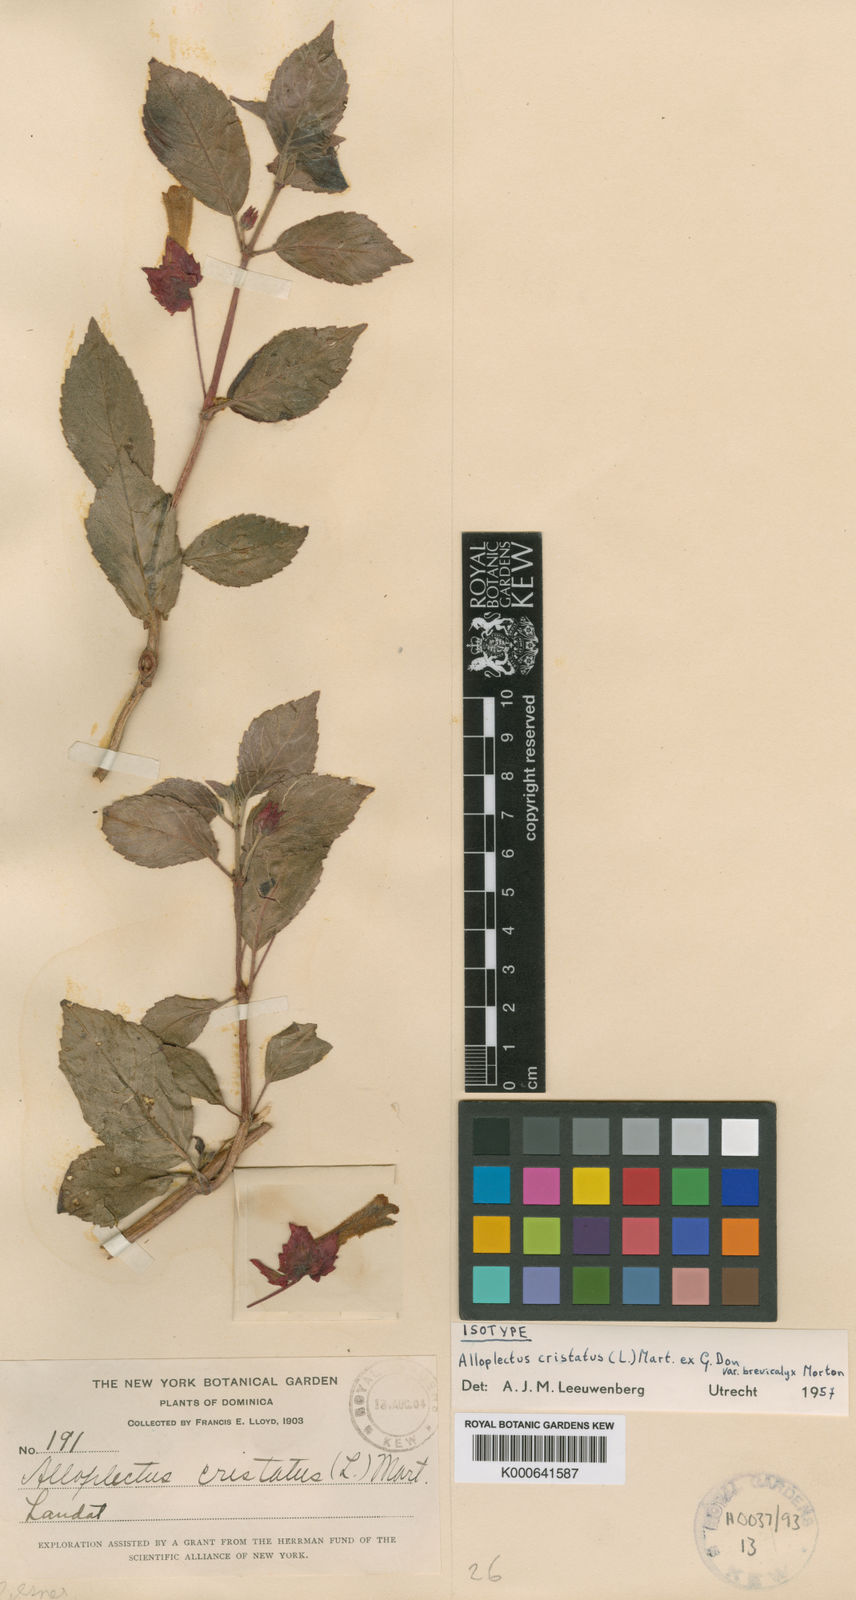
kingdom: Plantae
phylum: Tracheophyta
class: Magnoliopsida
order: Lamiales
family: Gesneriaceae
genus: Alloplectus
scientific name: Alloplectus
